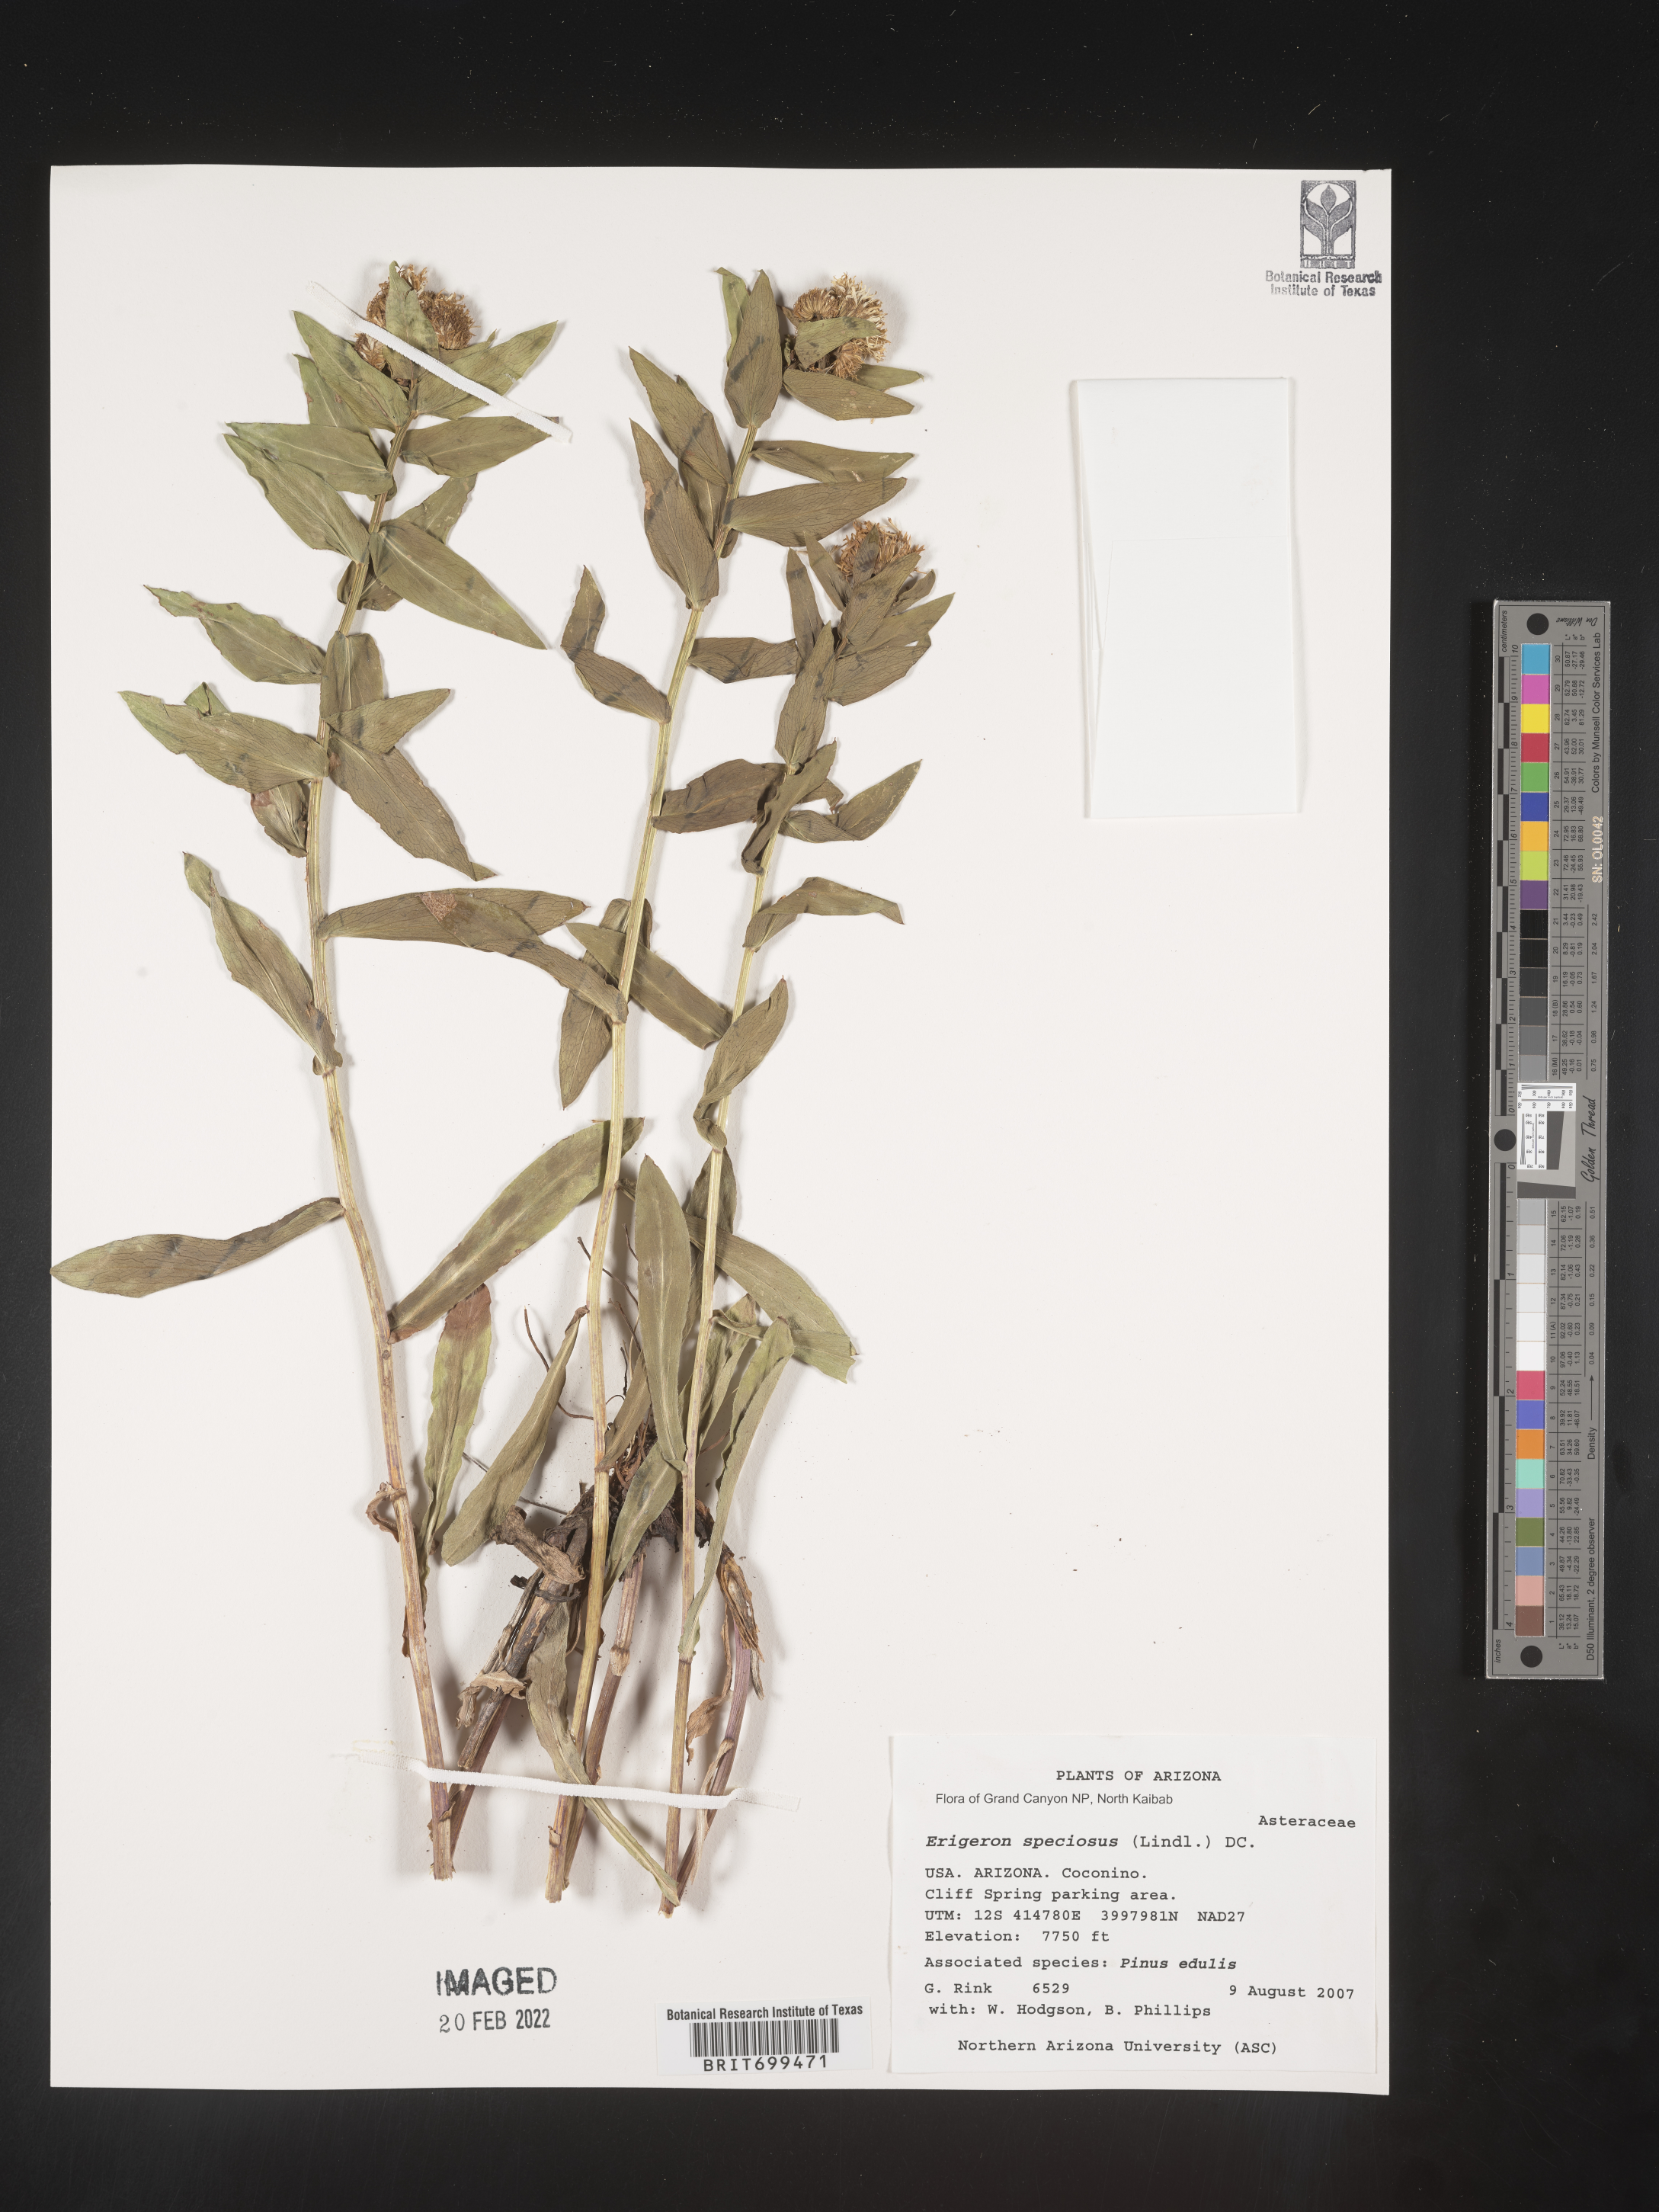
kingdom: Plantae
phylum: Tracheophyta
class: Magnoliopsida
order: Asterales
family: Asteraceae
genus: Erigeron
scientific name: Erigeron speciosus
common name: Aspen fleabane
